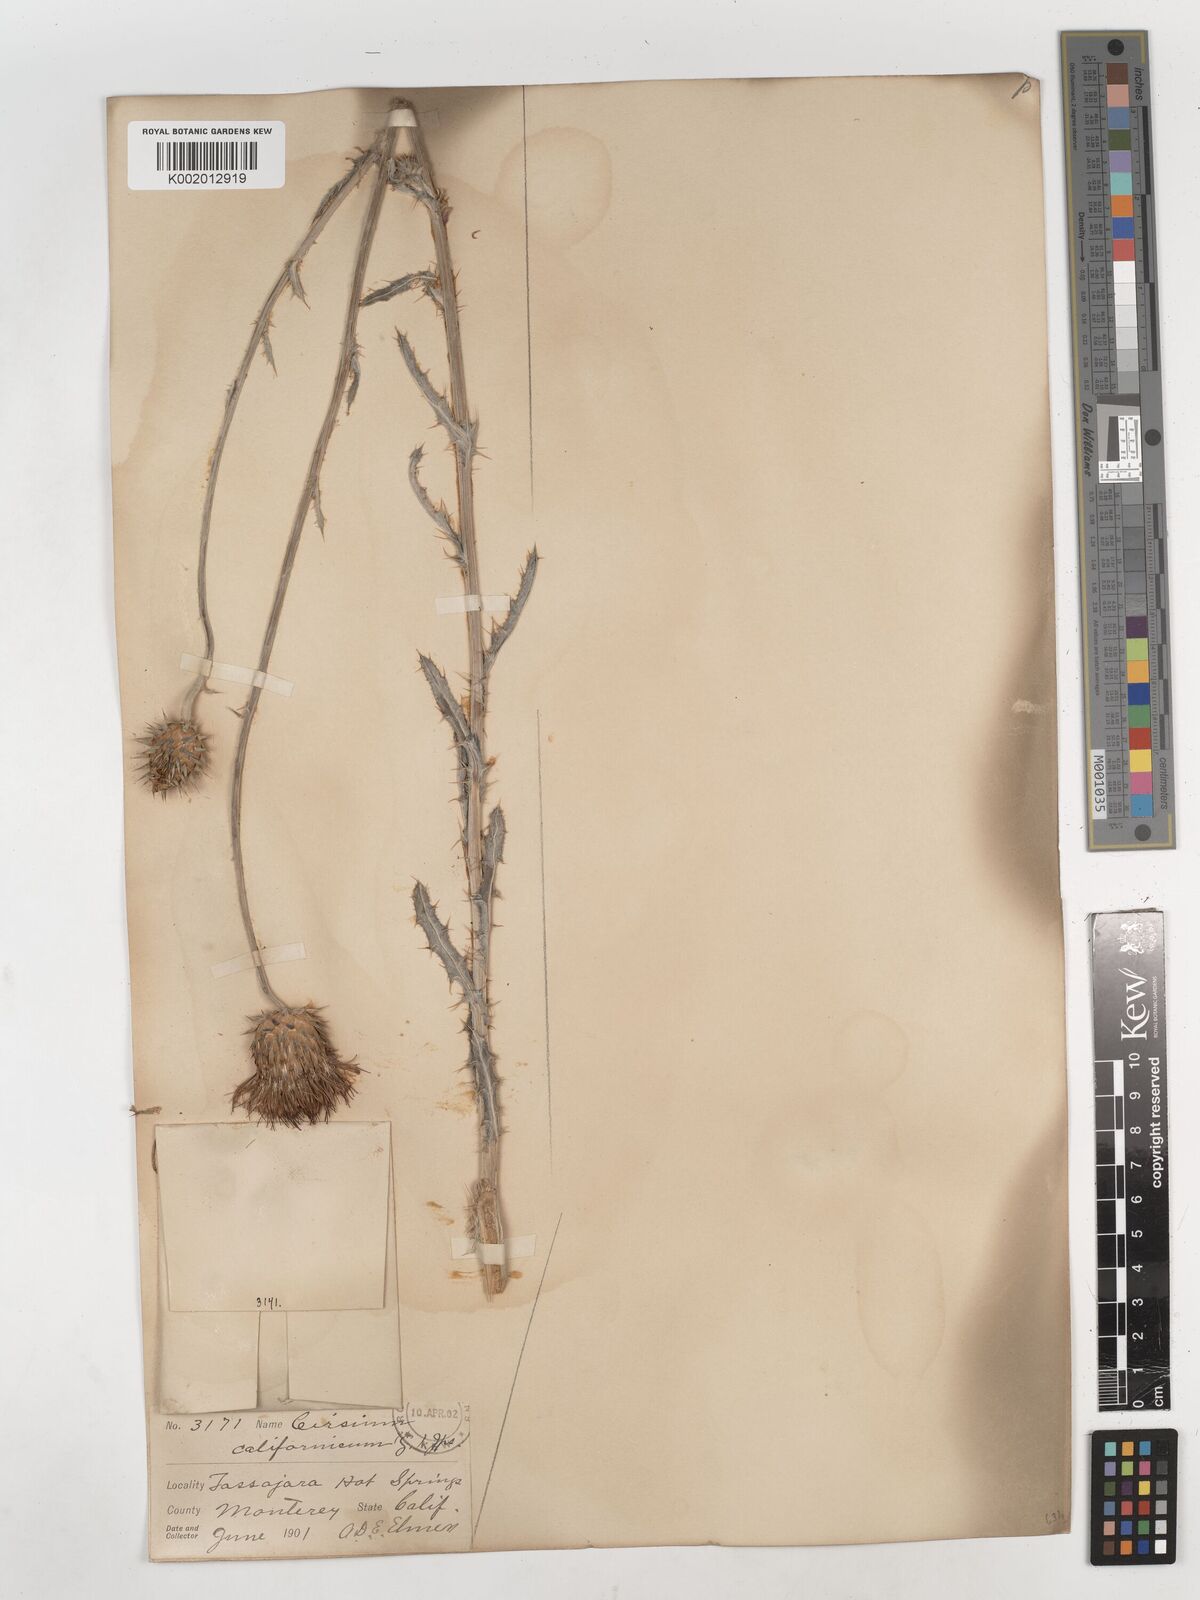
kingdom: Plantae
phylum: Tracheophyta
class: Magnoliopsida
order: Asterales
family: Asteraceae
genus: Cirsium
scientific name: Cirsium occidentale
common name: Western thistle
